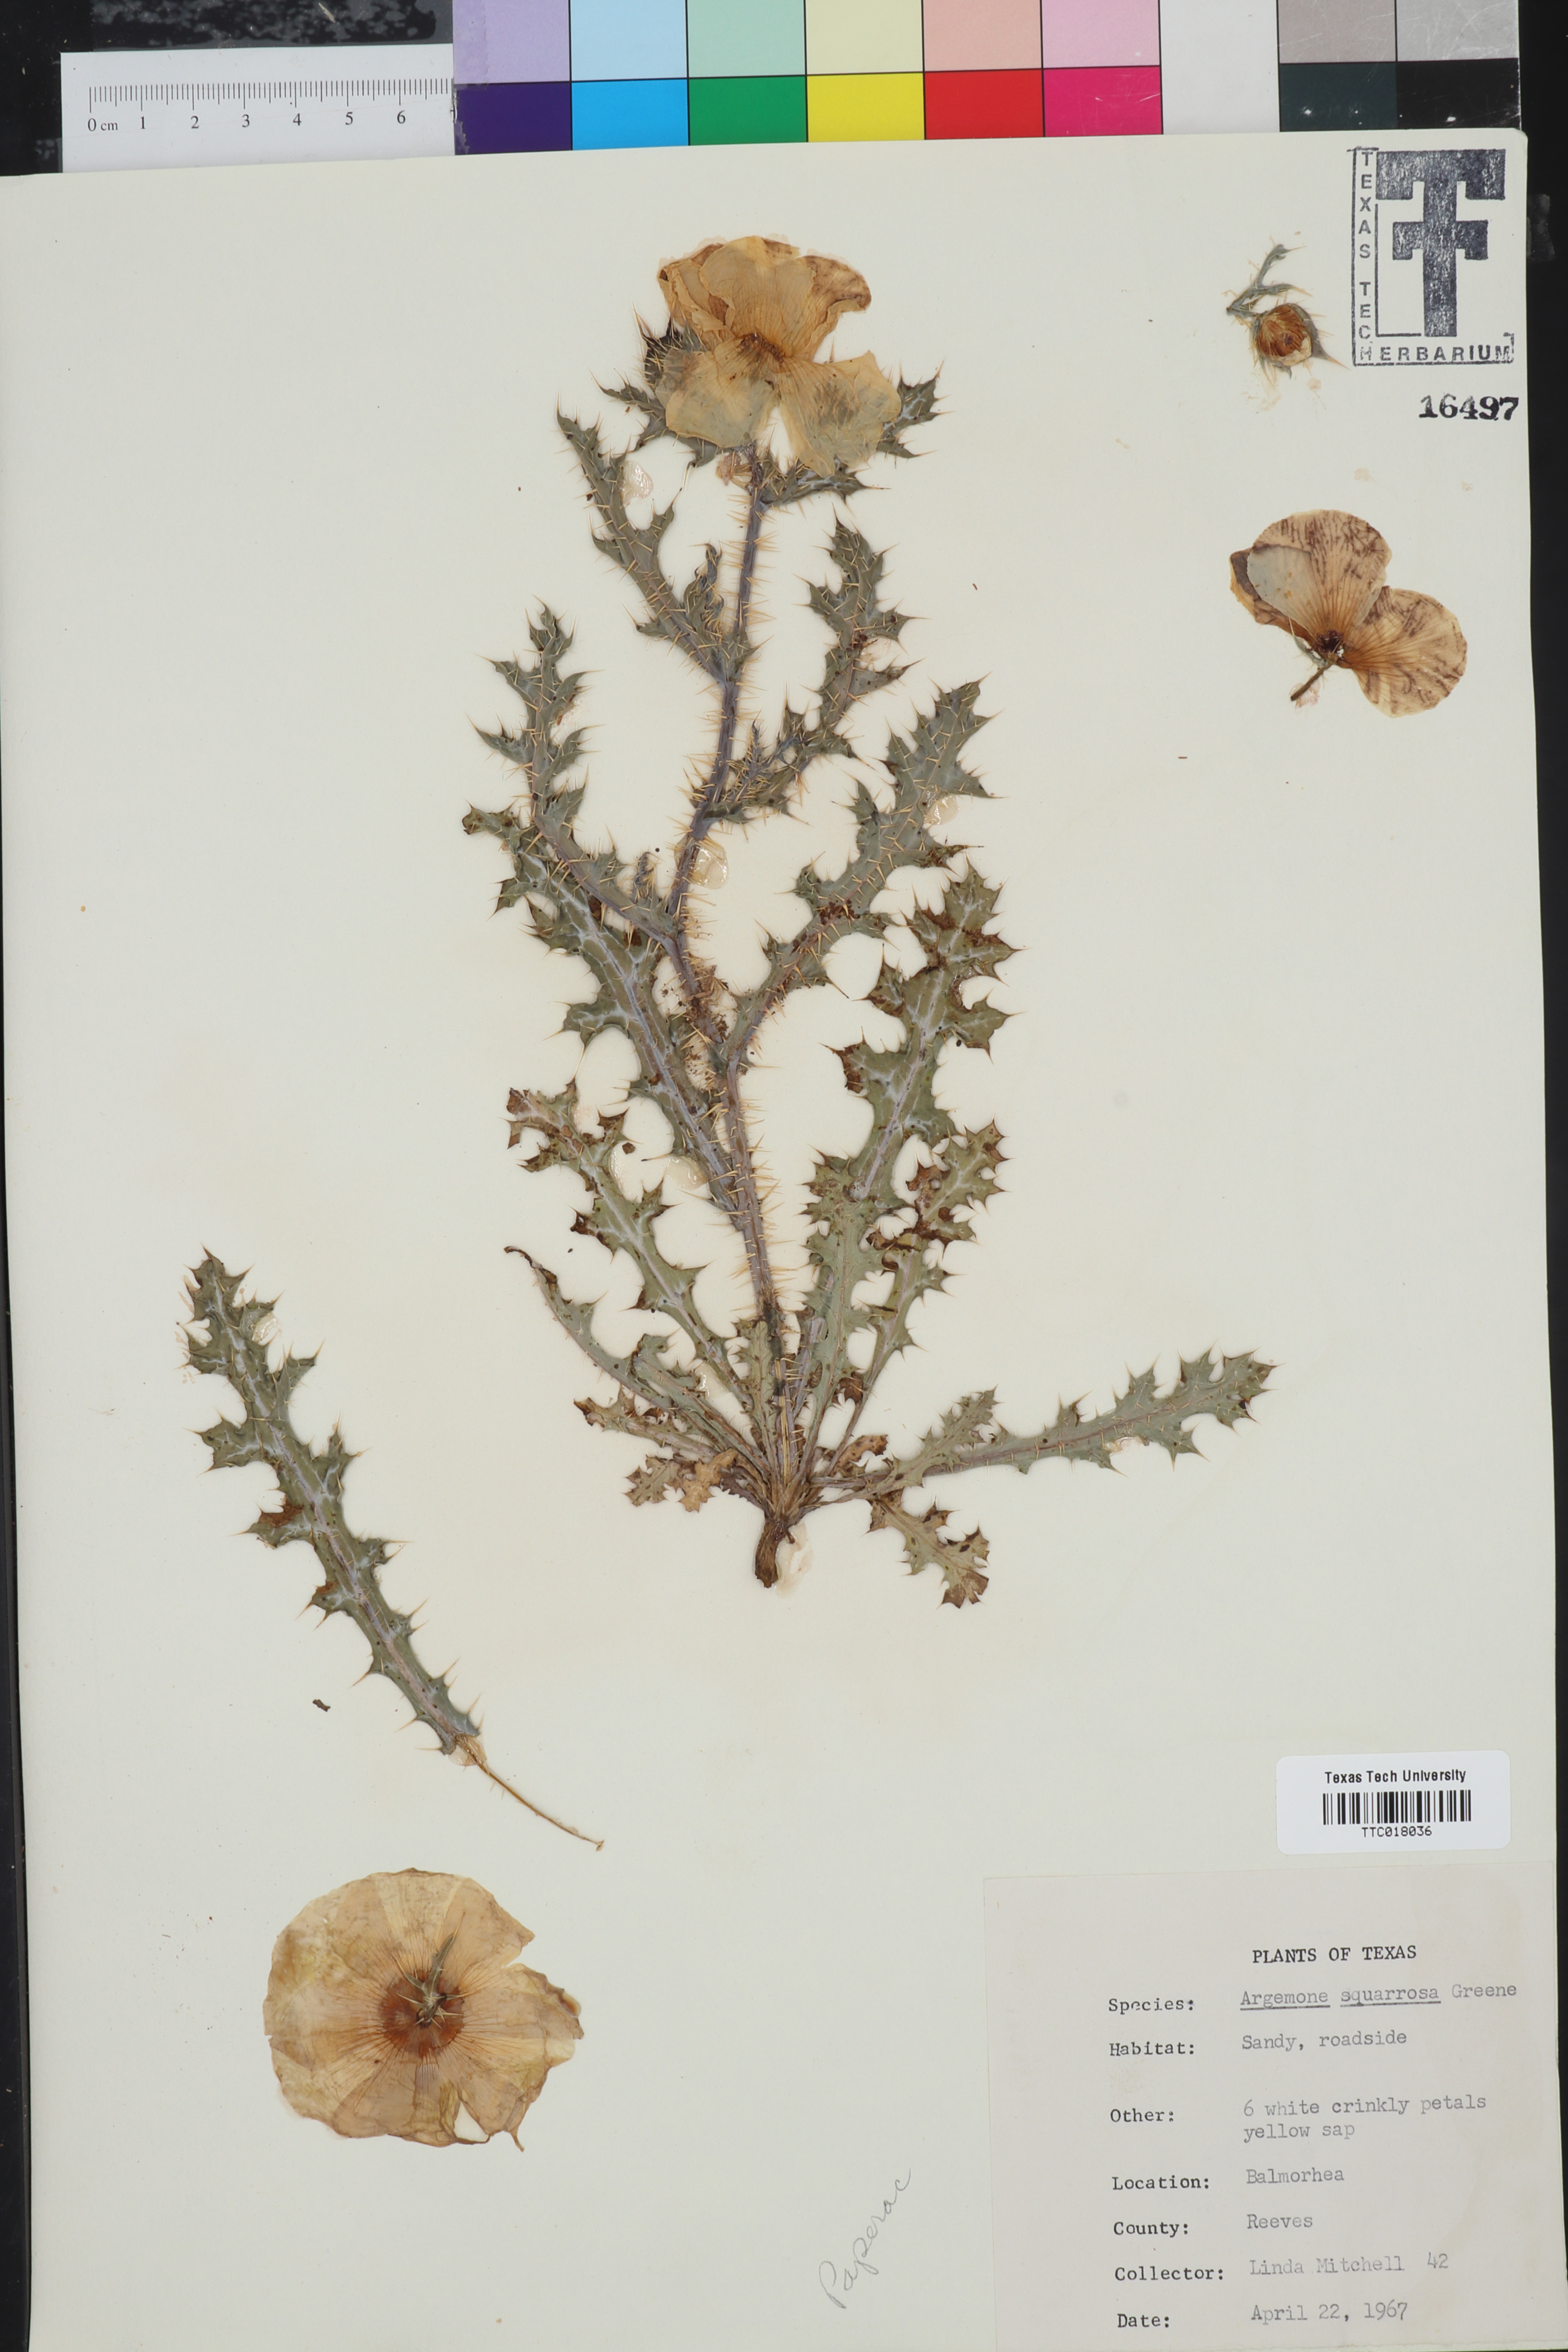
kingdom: Plantae
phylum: Tracheophyta
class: Magnoliopsida
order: Ranunculales
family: Papaveraceae
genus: Argemone
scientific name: Argemone squarrosa
